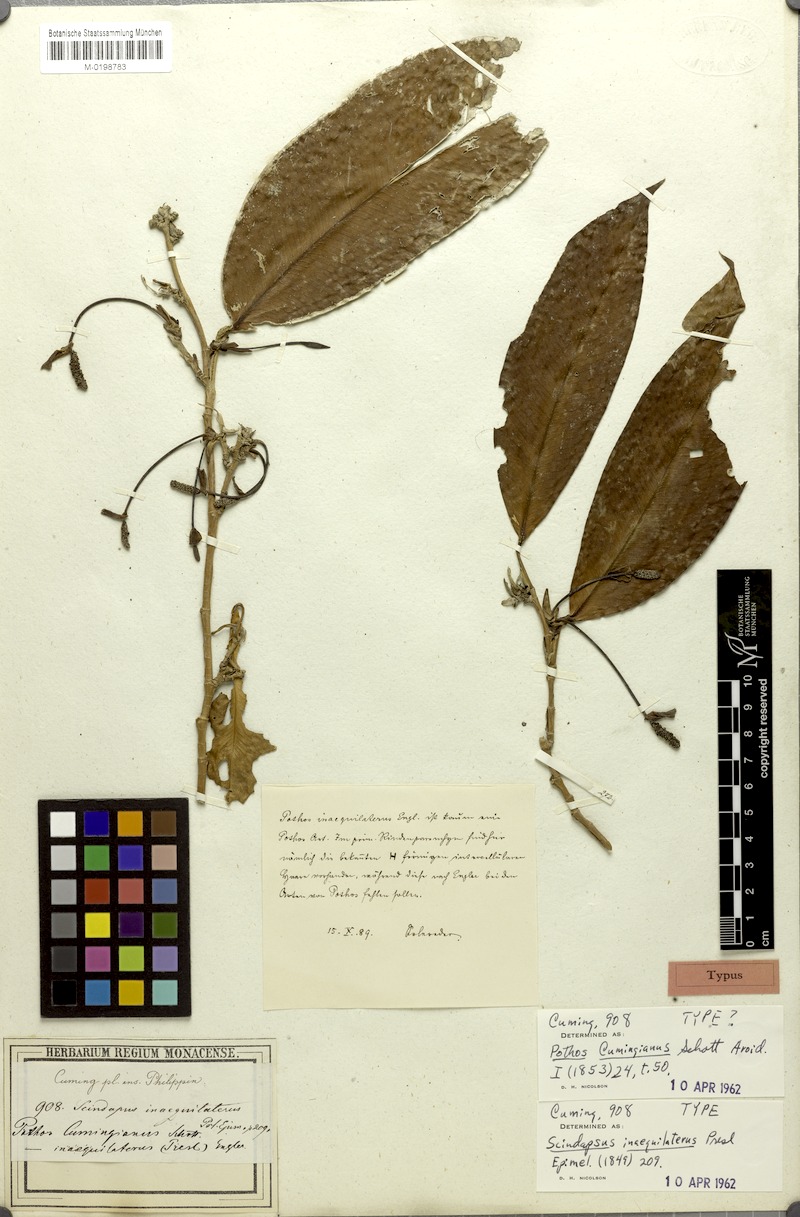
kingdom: Plantae
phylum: Tracheophyta
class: Liliopsida
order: Alismatales
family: Araceae
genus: Pothos
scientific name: Pothos inaequilaterus
